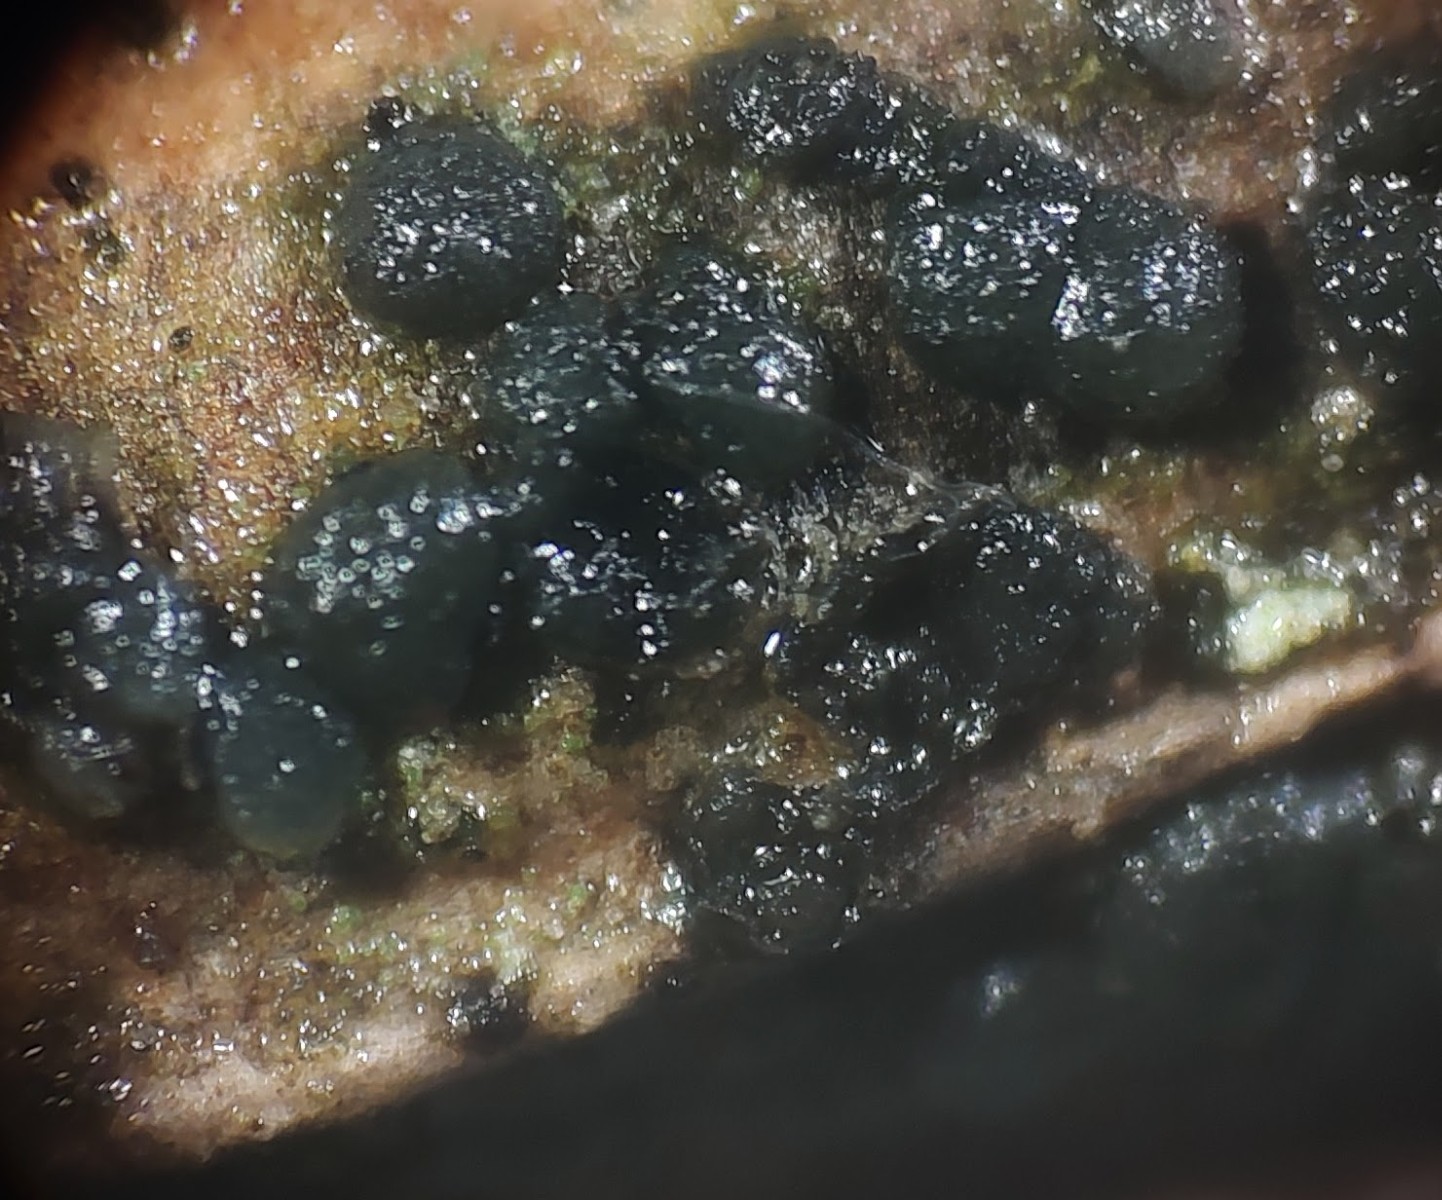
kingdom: Fungi
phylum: Basidiomycota
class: Tremellomycetes
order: Tremellales
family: Tremellaceae
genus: Tremella
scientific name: Tremella exigua
